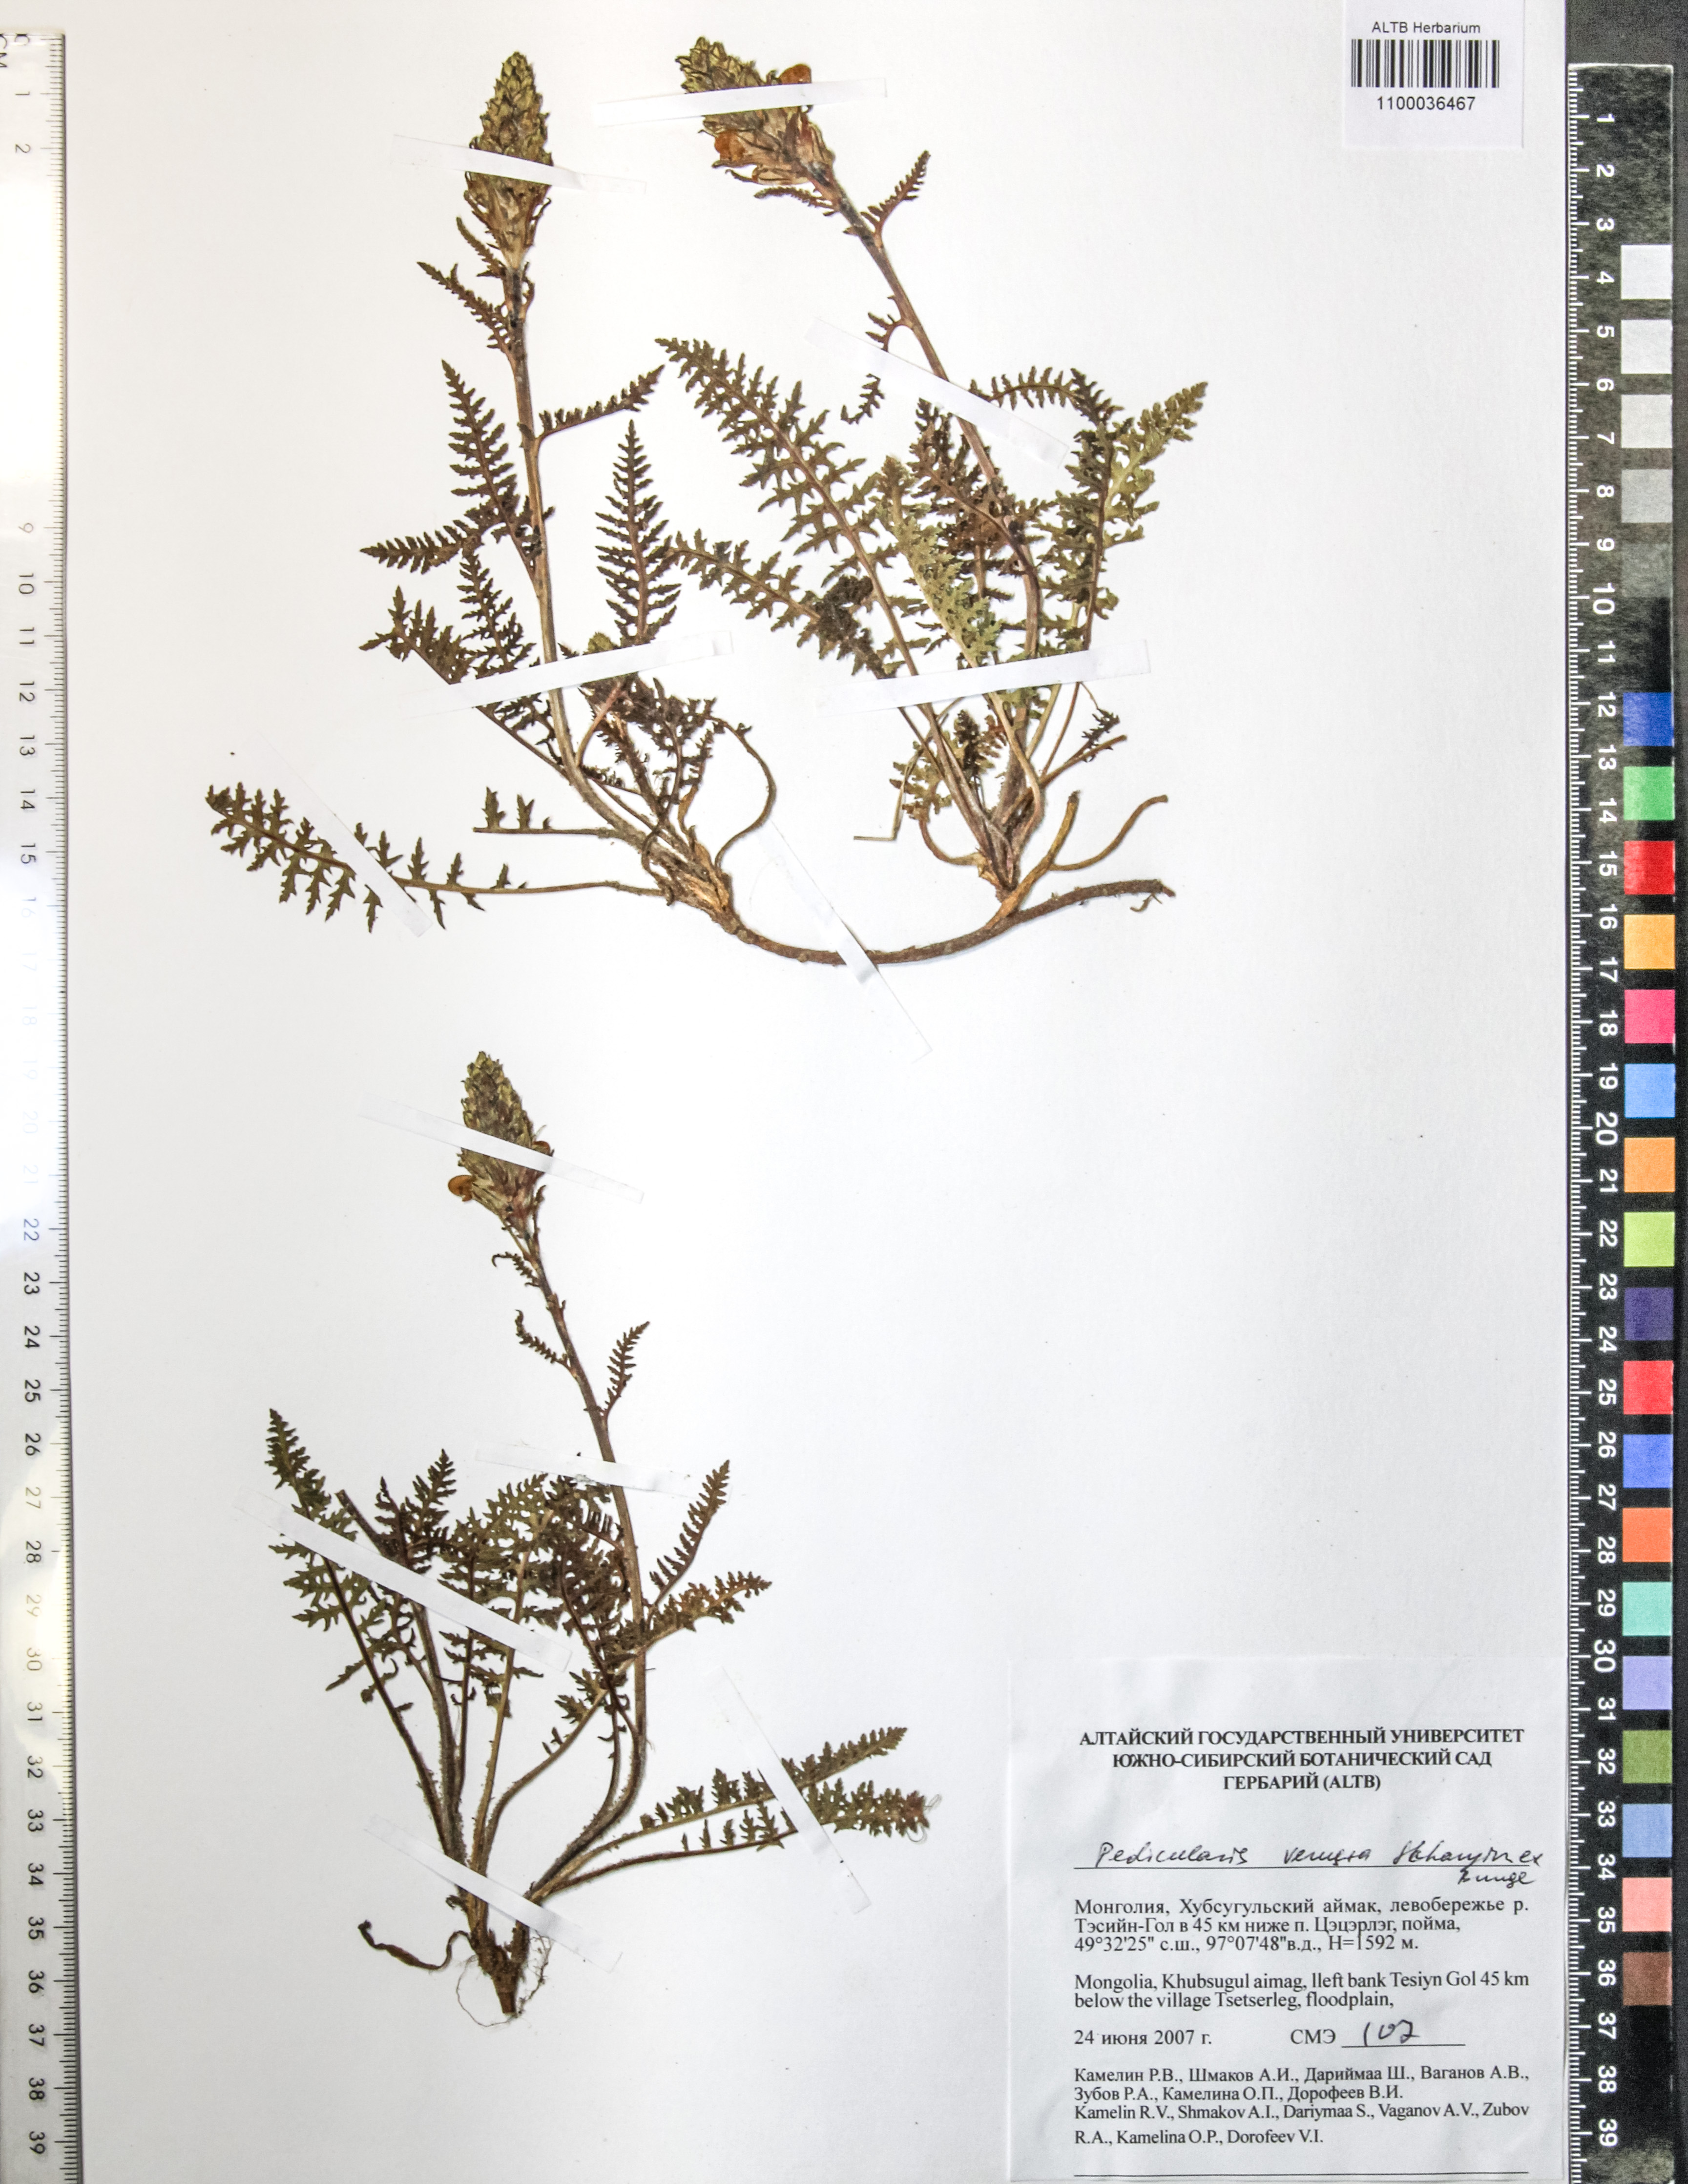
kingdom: Plantae
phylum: Tracheophyta
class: Magnoliopsida
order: Lamiales
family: Orobanchaceae
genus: Pedicularis
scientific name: Pedicularis venusta
